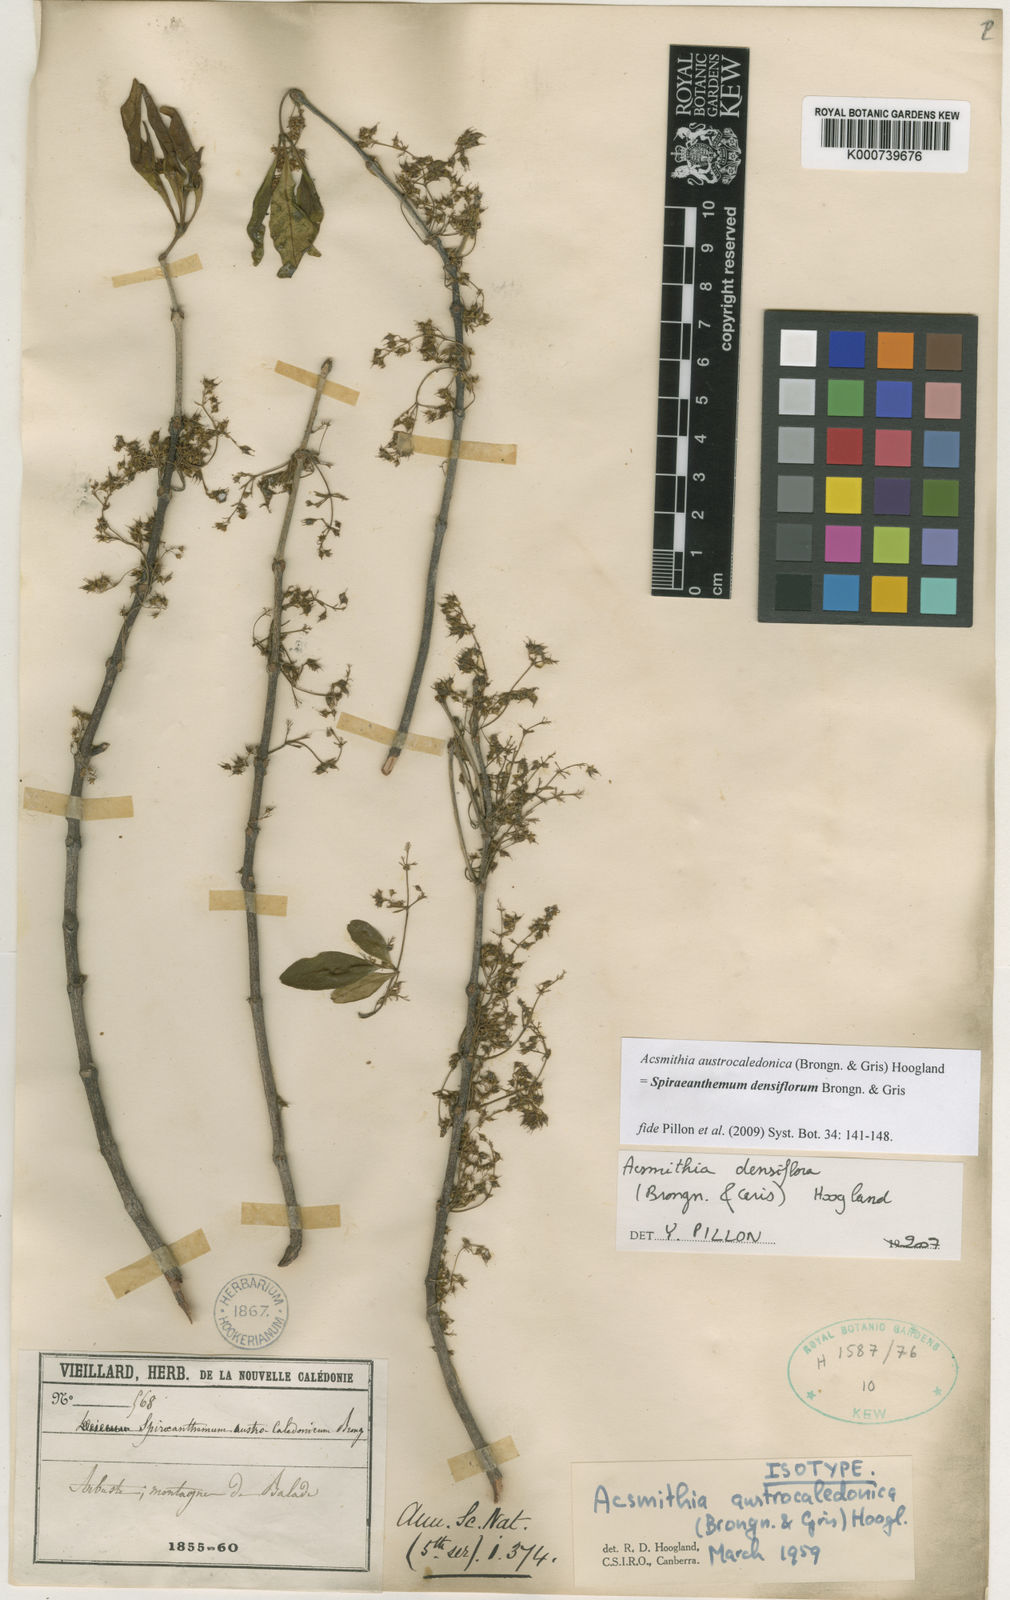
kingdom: Plantae
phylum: Tracheophyta
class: Magnoliopsida
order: Oxalidales
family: Cunoniaceae
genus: Spiraeanthemum
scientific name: Spiraeanthemum densiflorum
